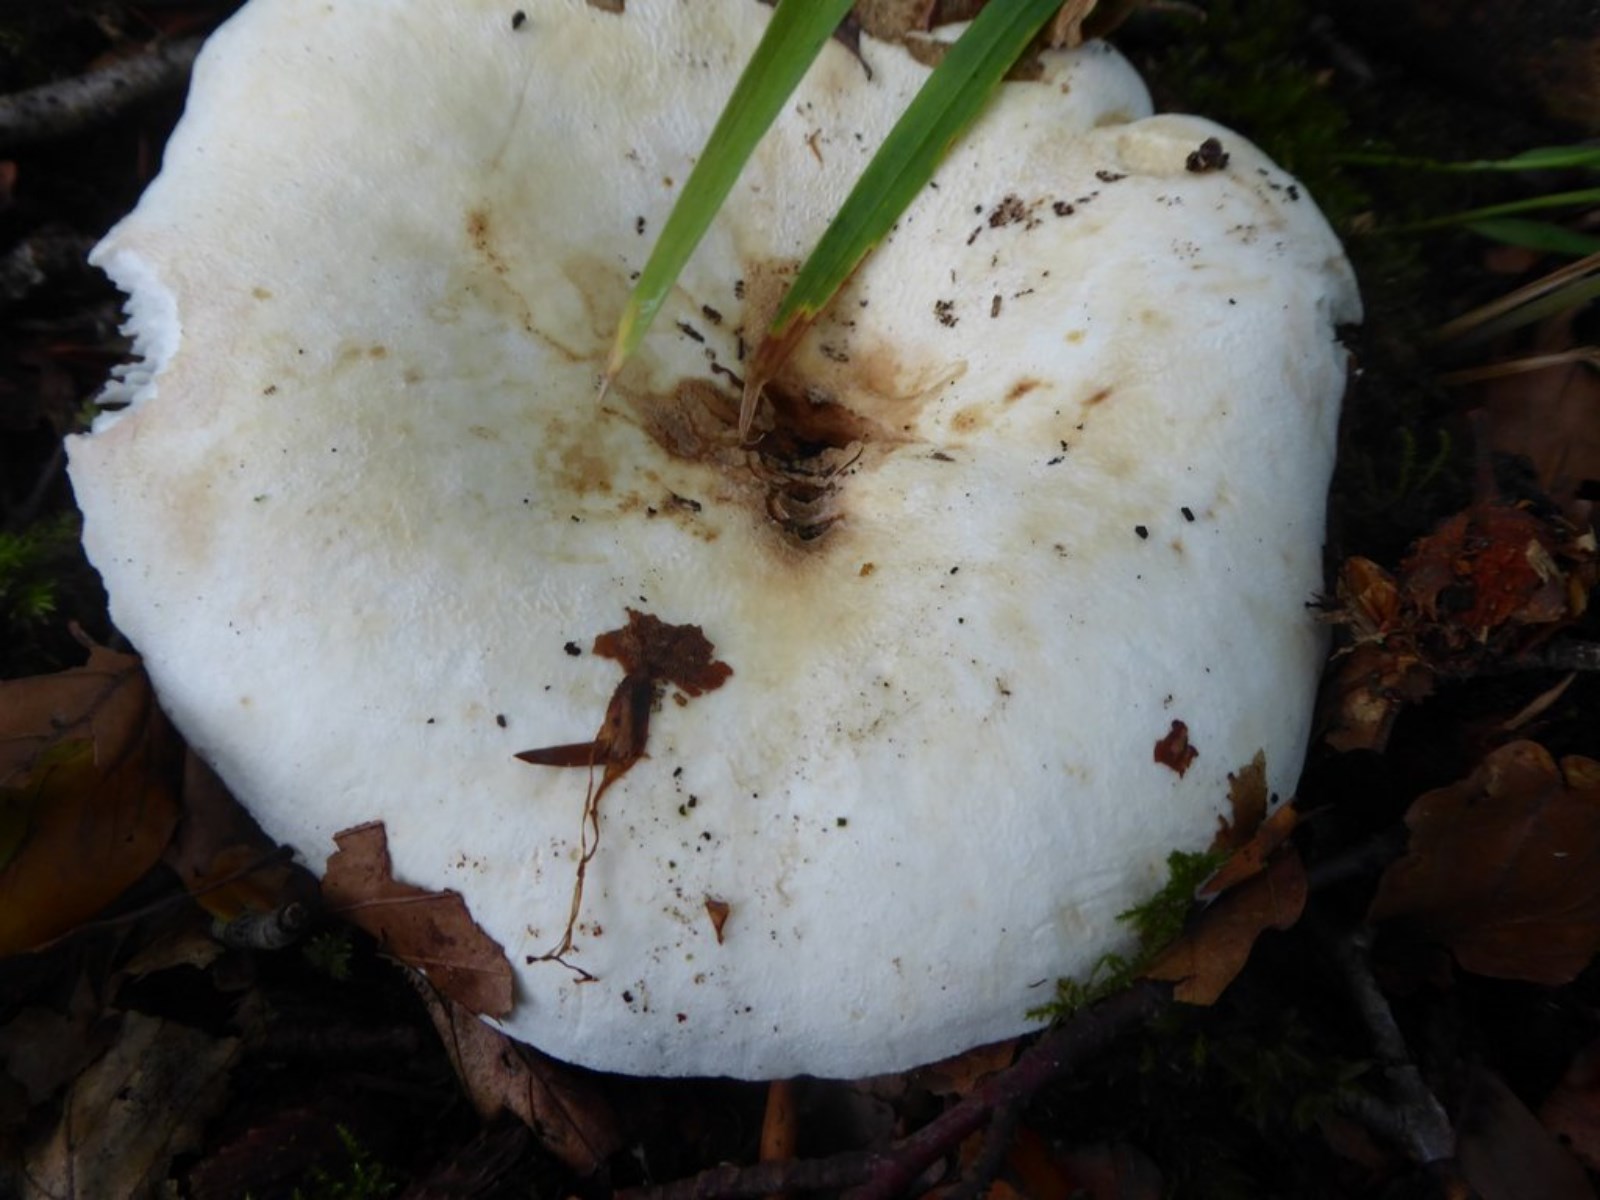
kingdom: Fungi
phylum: Basidiomycota
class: Agaricomycetes
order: Russulales
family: Russulaceae
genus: Lactarius
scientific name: Lactarius
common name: mælkehat
